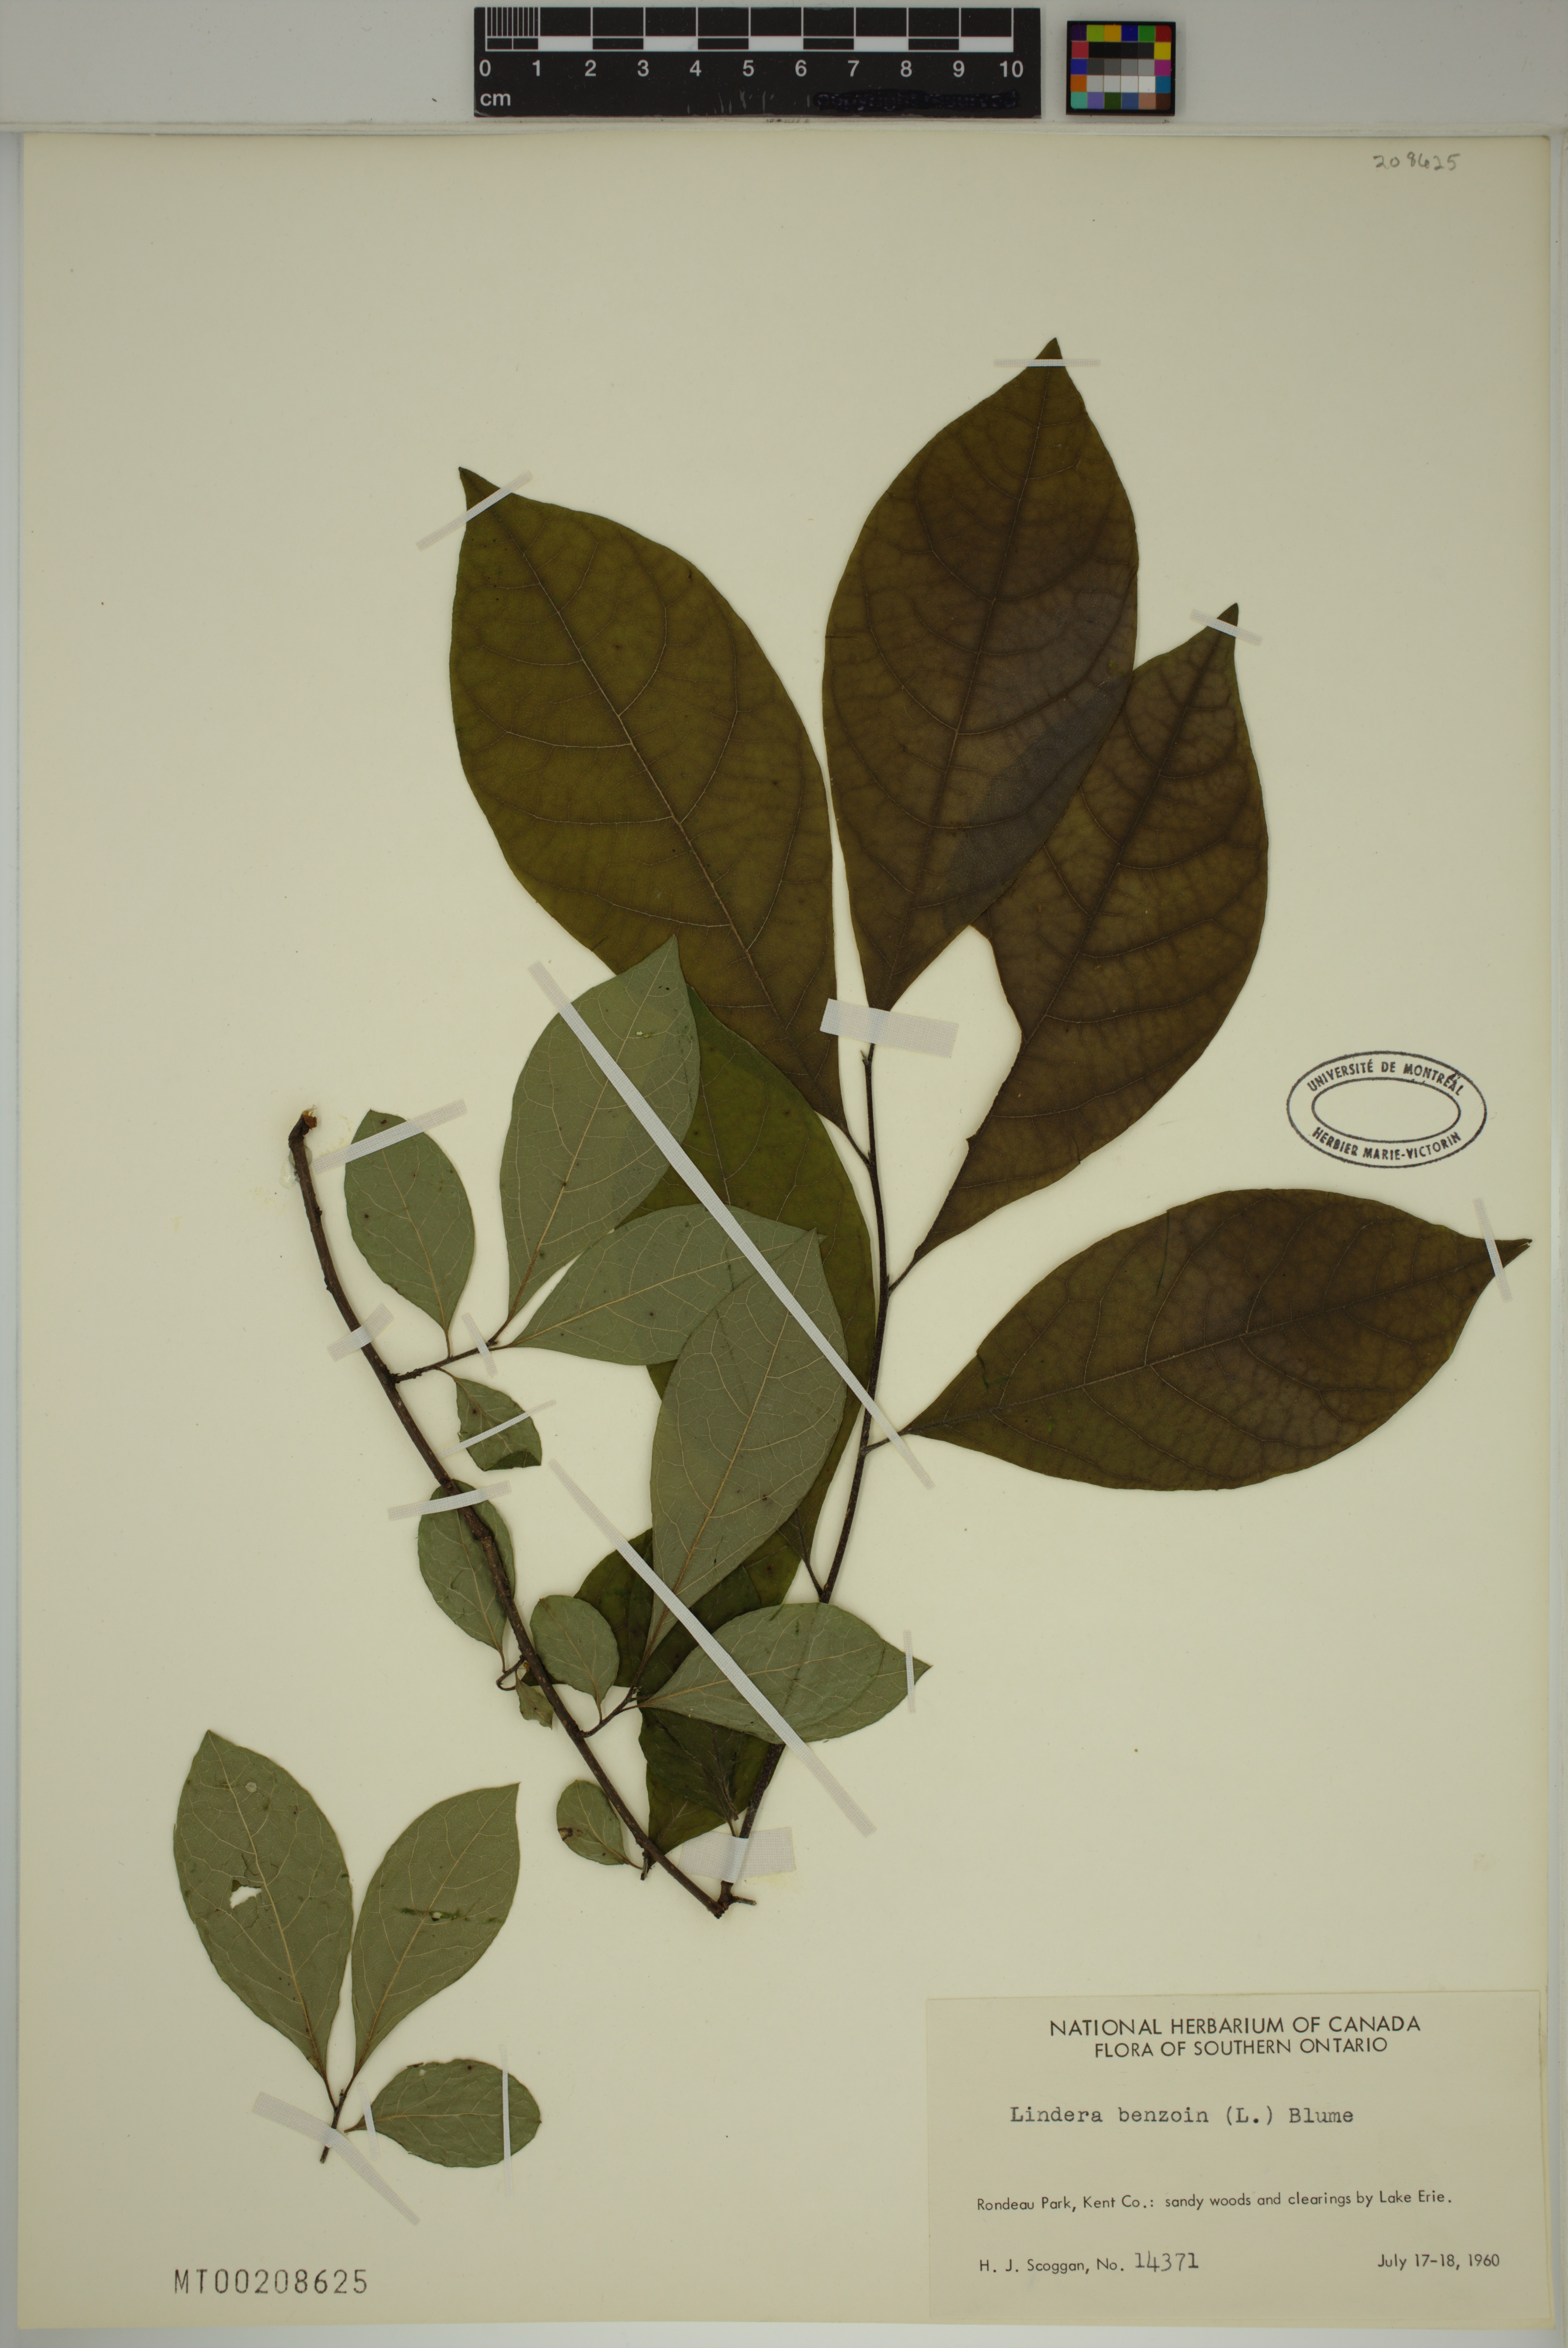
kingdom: Plantae
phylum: Tracheophyta
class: Magnoliopsida
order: Laurales
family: Lauraceae
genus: Lindera
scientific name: Lindera benzoin
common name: Spicebush
